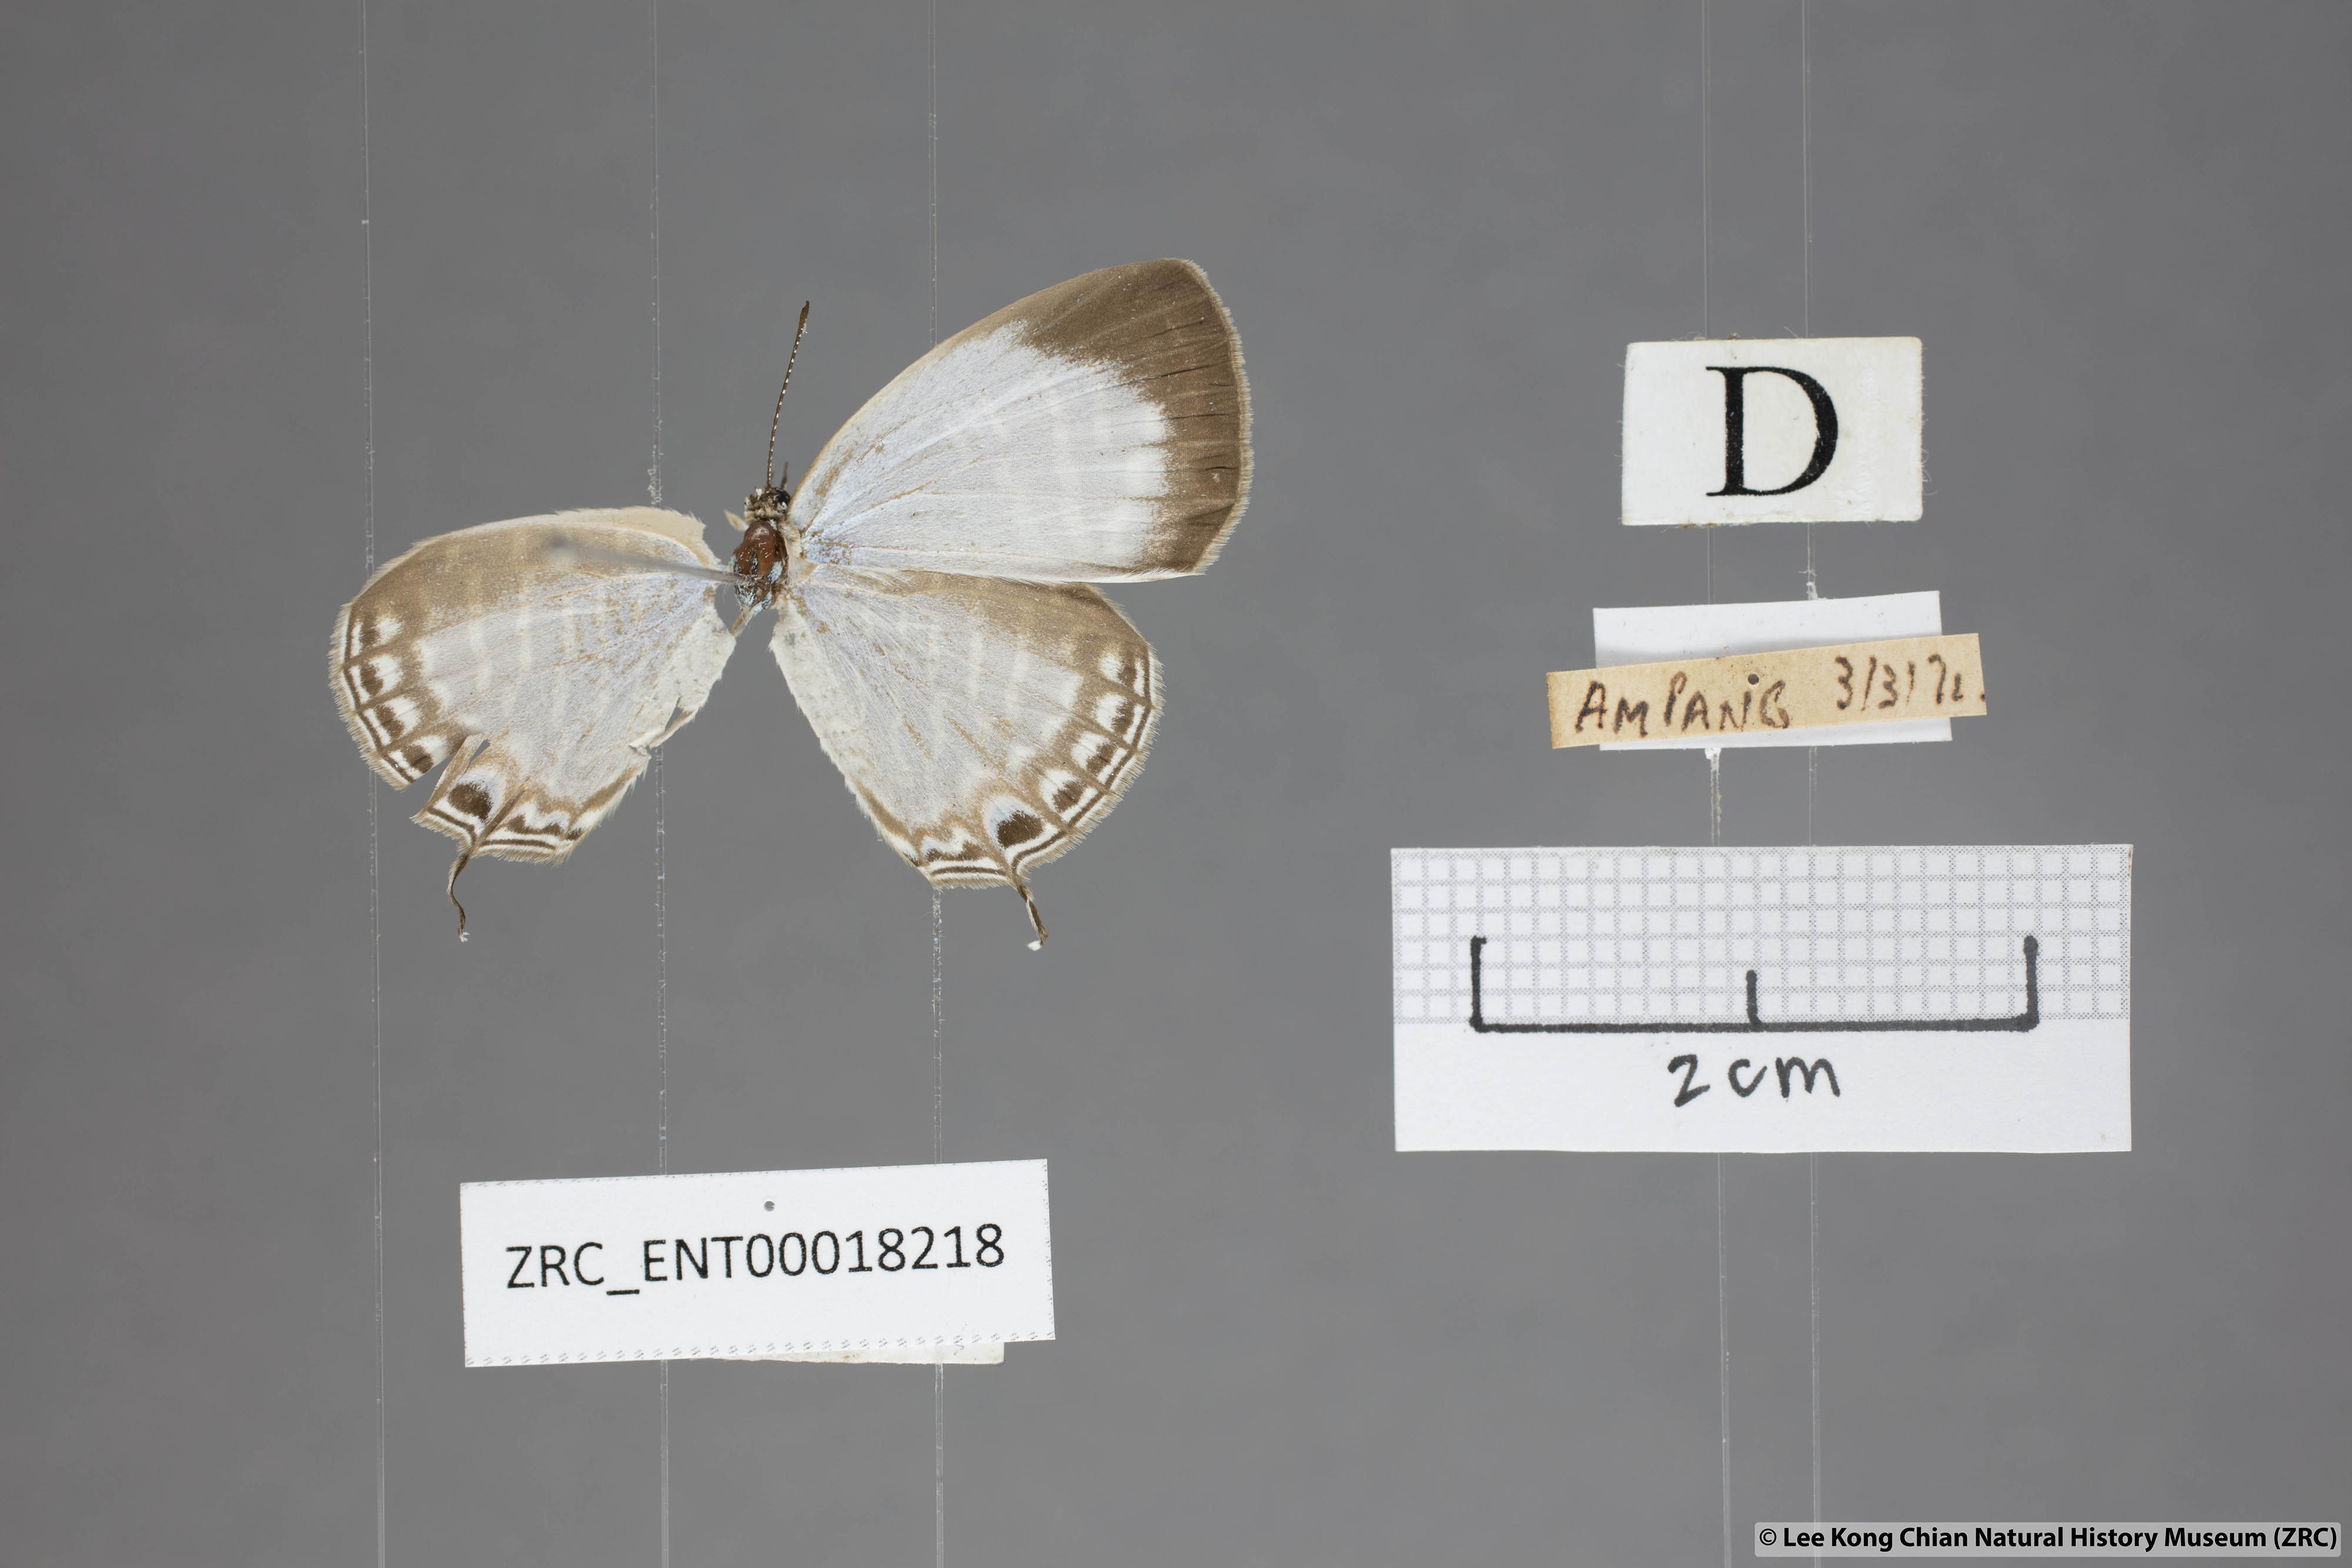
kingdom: Animalia
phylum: Arthropoda
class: Insecta
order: Lepidoptera
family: Lycaenidae
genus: Jamides
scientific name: Jamides zebra
